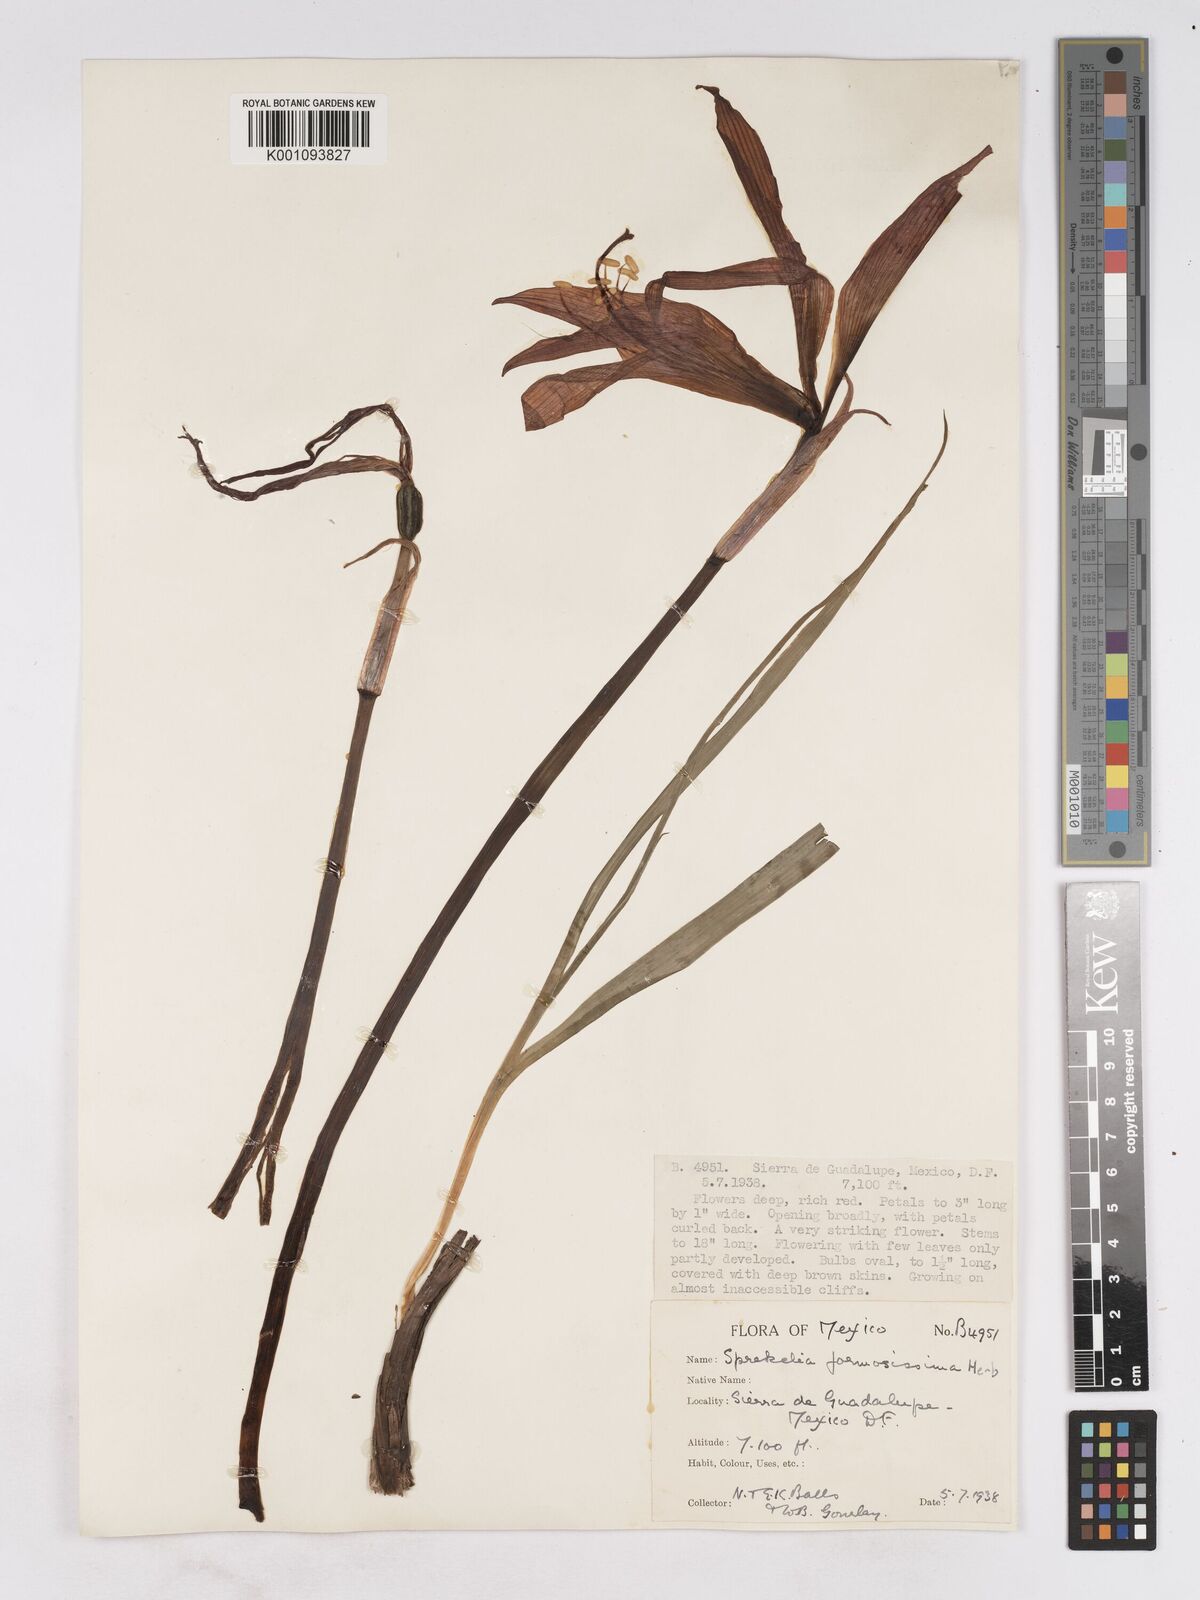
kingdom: Plantae
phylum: Tracheophyta
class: Liliopsida
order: Asparagales
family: Amaryllidaceae
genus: Sprekelia
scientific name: Sprekelia formosissima
